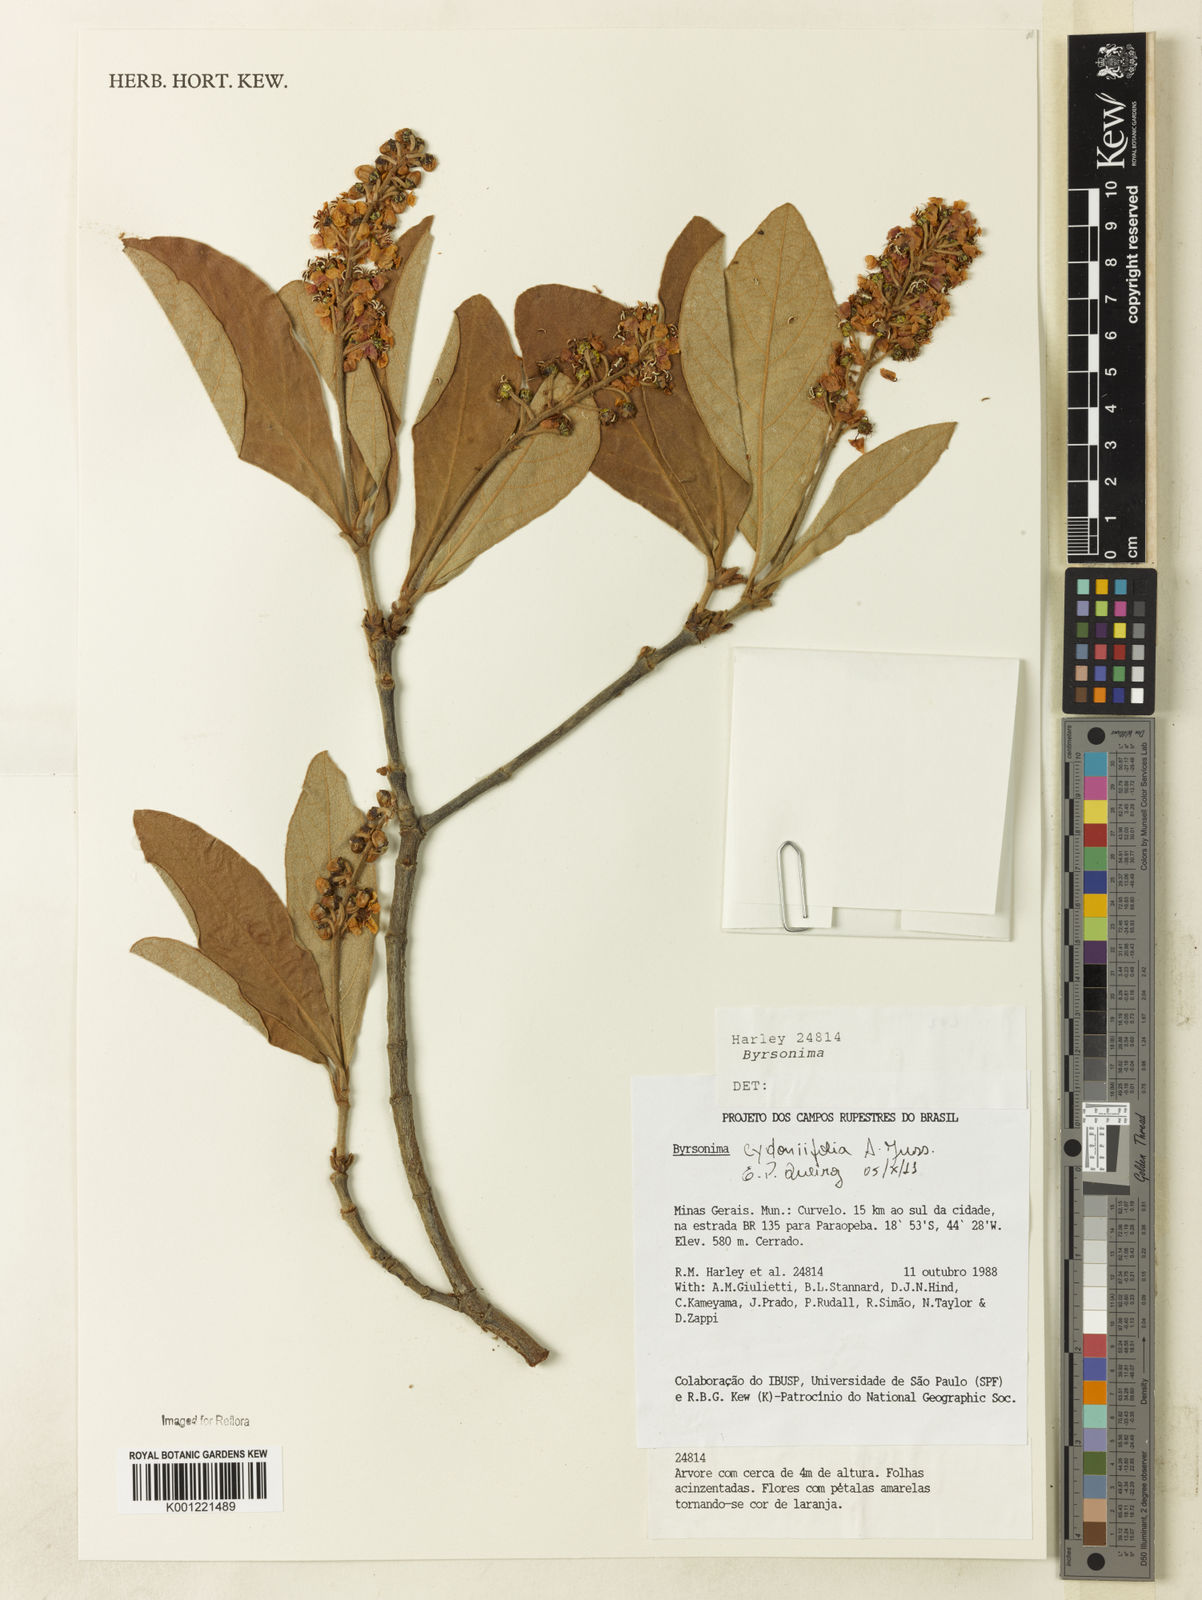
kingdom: Plantae
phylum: Tracheophyta
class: Magnoliopsida
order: Malpighiales
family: Malpighiaceae
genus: Byrsonima
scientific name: Byrsonima cydoniifolia
